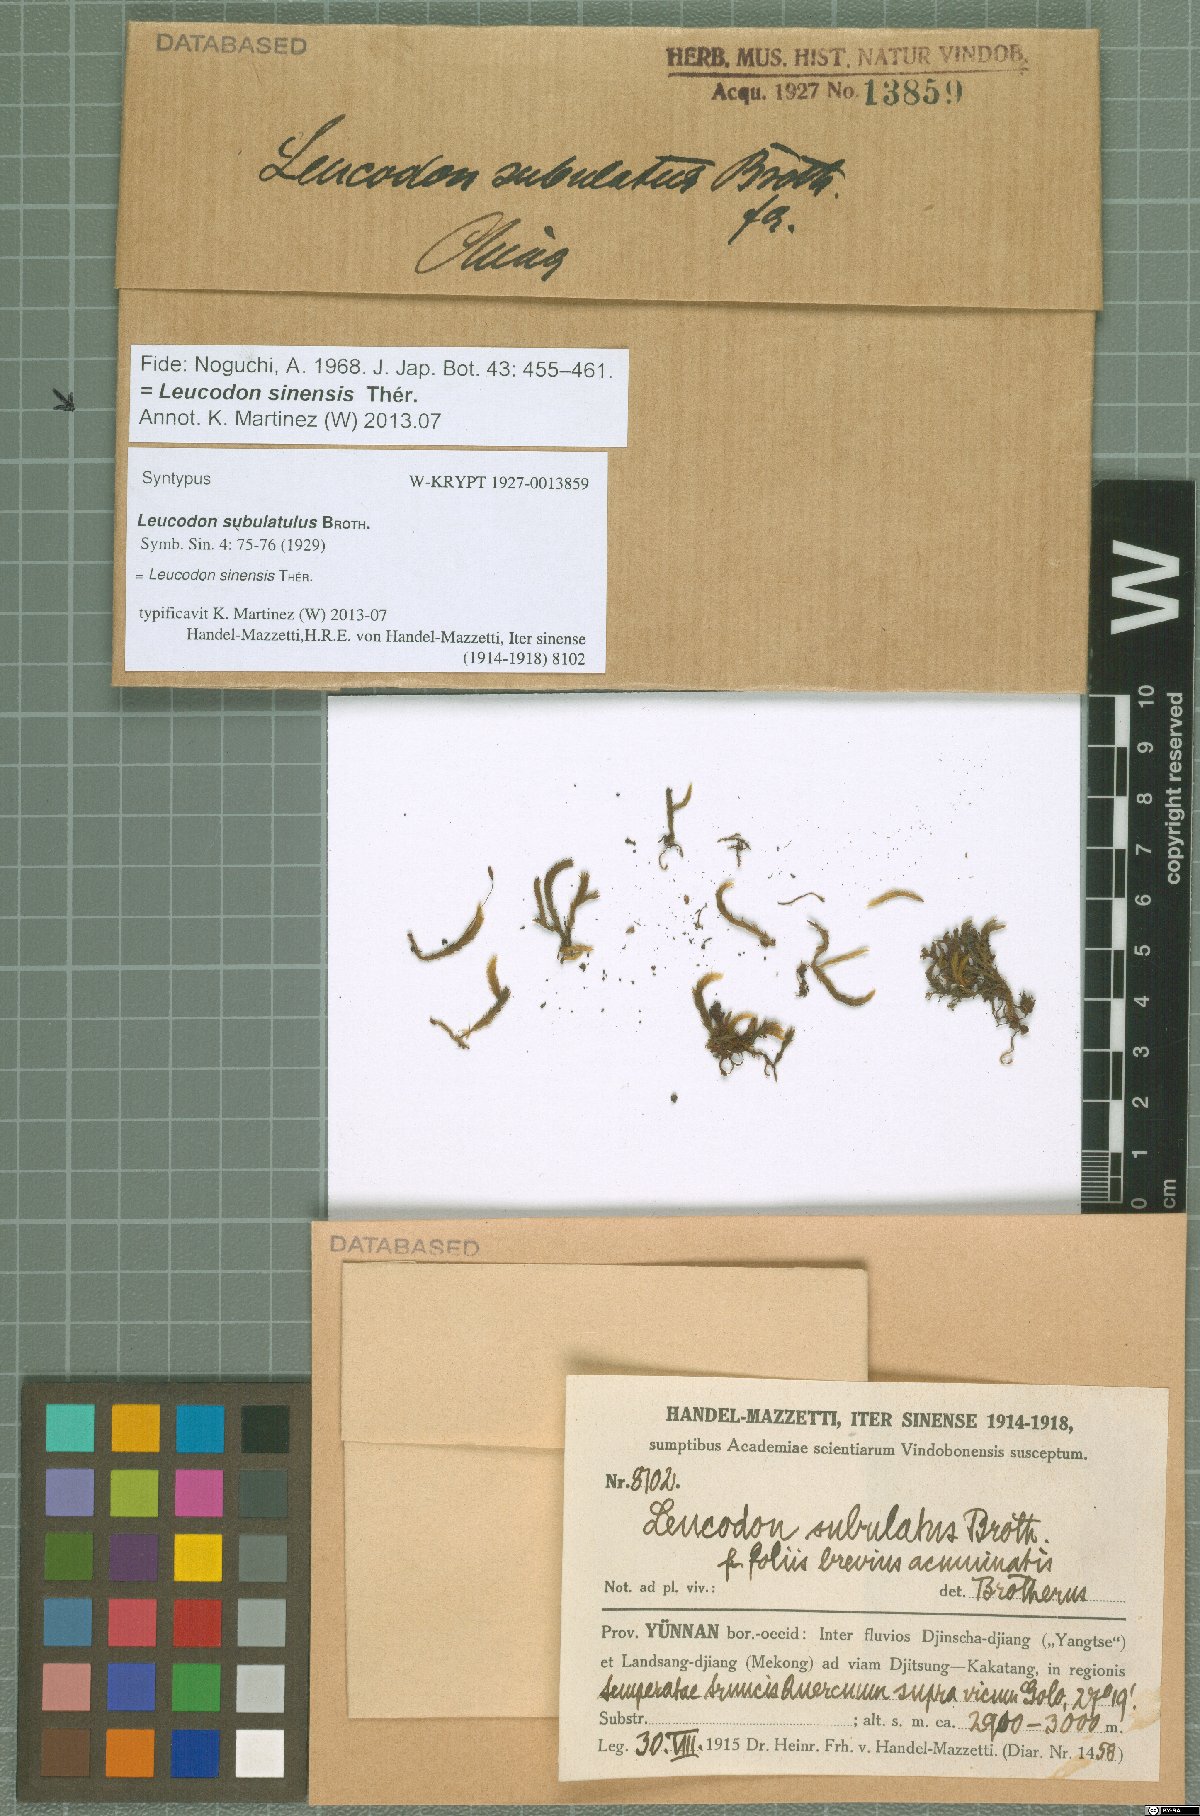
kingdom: Plantae
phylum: Bryophyta
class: Bryopsida
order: Hypnales
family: Leucodontaceae
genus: Leucodon
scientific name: Leucodon secundus
